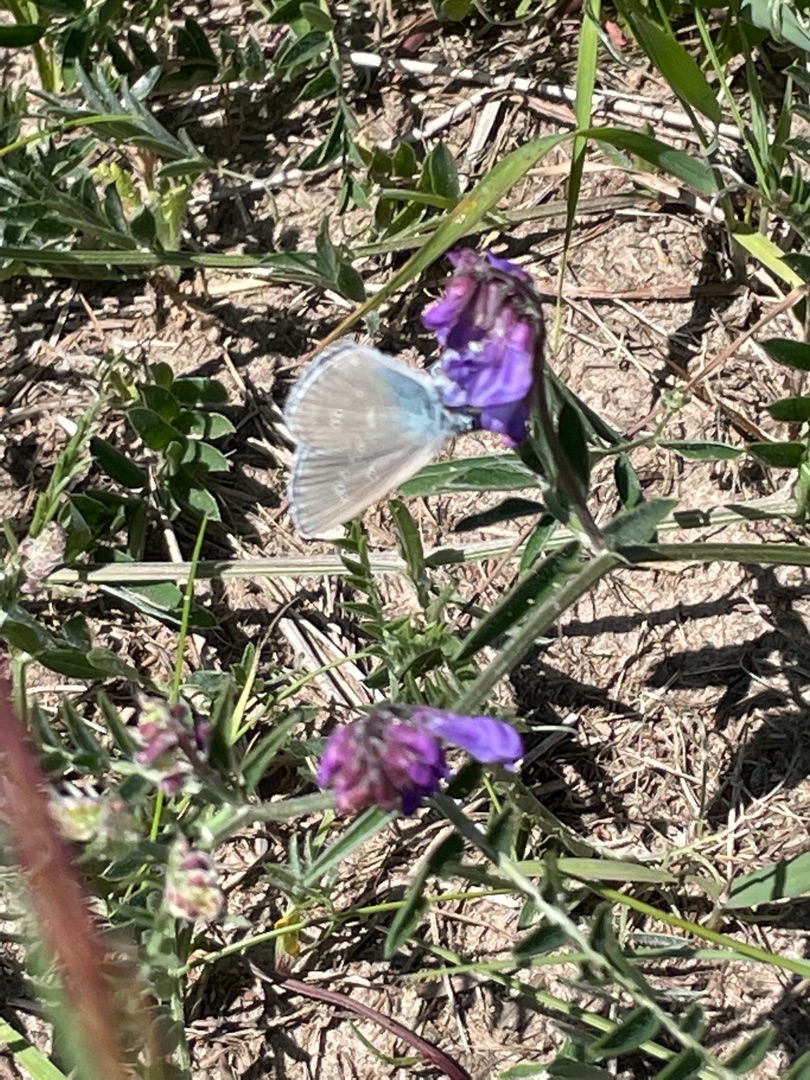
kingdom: Animalia
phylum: Arthropoda
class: Insecta
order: Lepidoptera
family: Lycaenidae
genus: Cyaniris
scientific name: Cyaniris semiargus
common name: Engblåfugl
